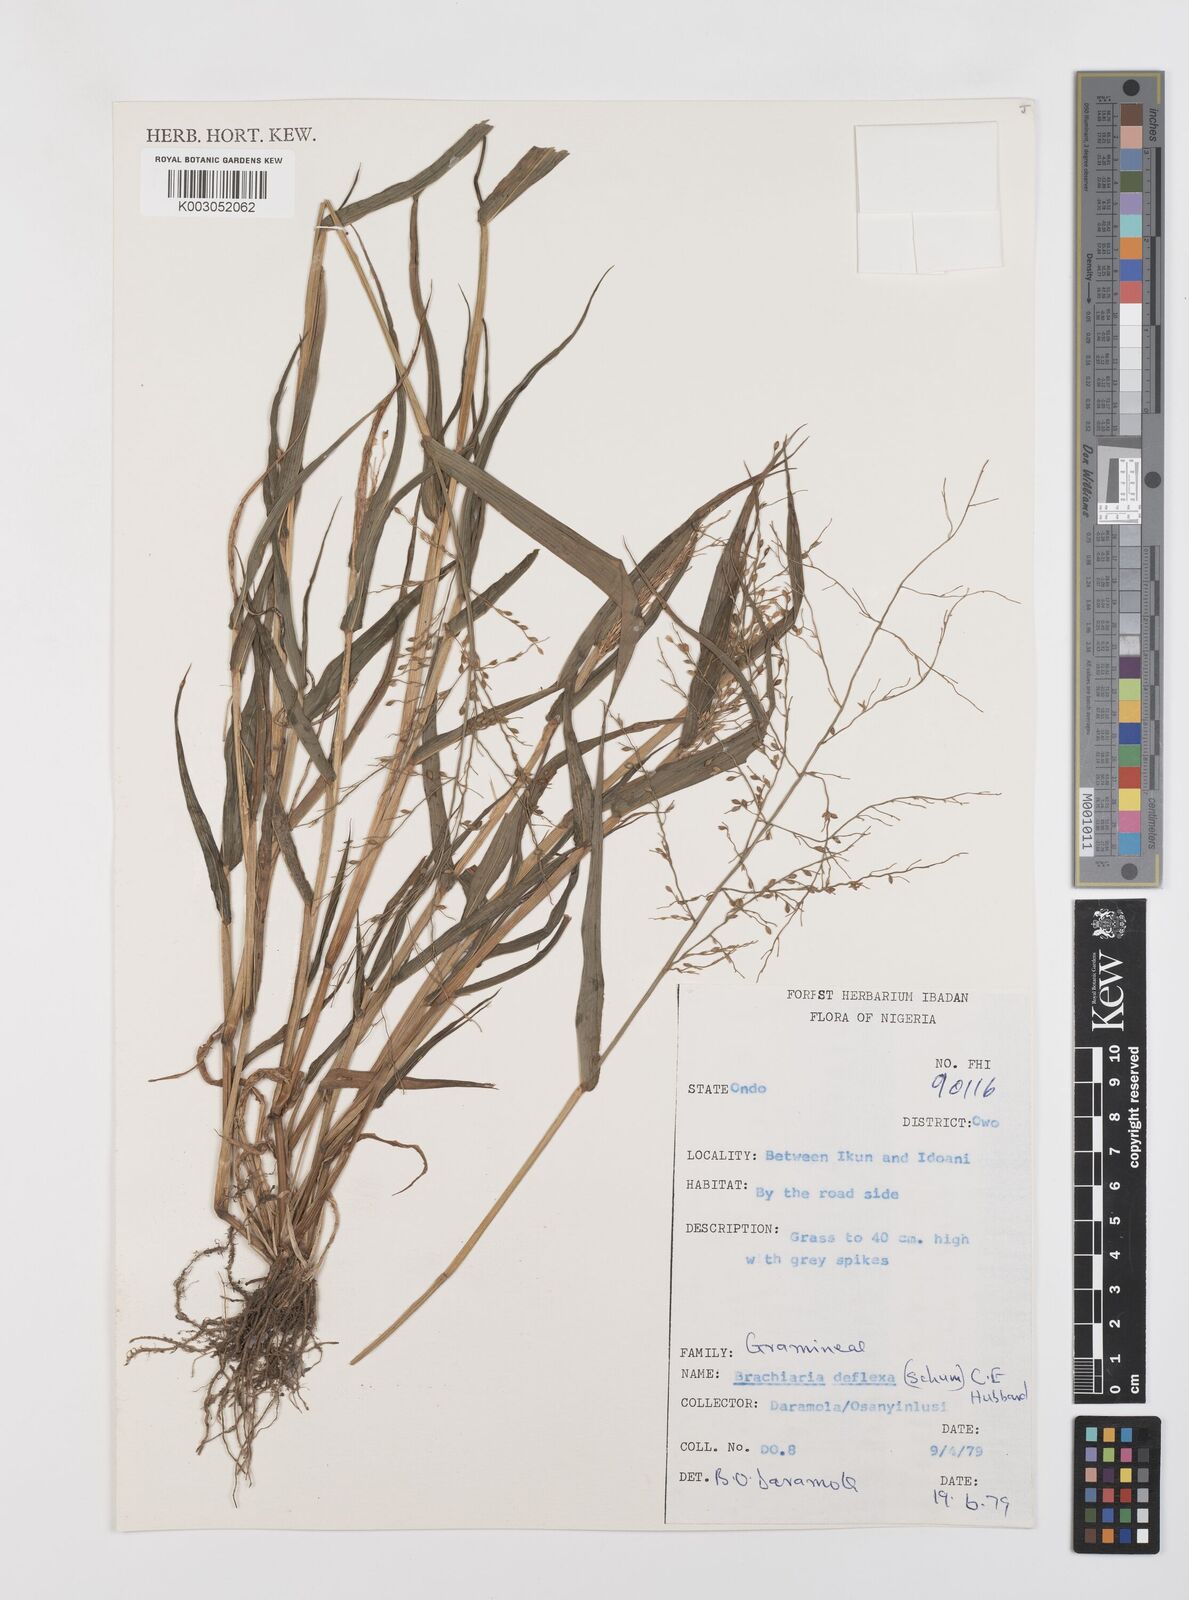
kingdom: Plantae
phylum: Tracheophyta
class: Liliopsida
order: Poales
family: Poaceae
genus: Urochloa
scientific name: Urochloa deflexa
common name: Guinea millet
